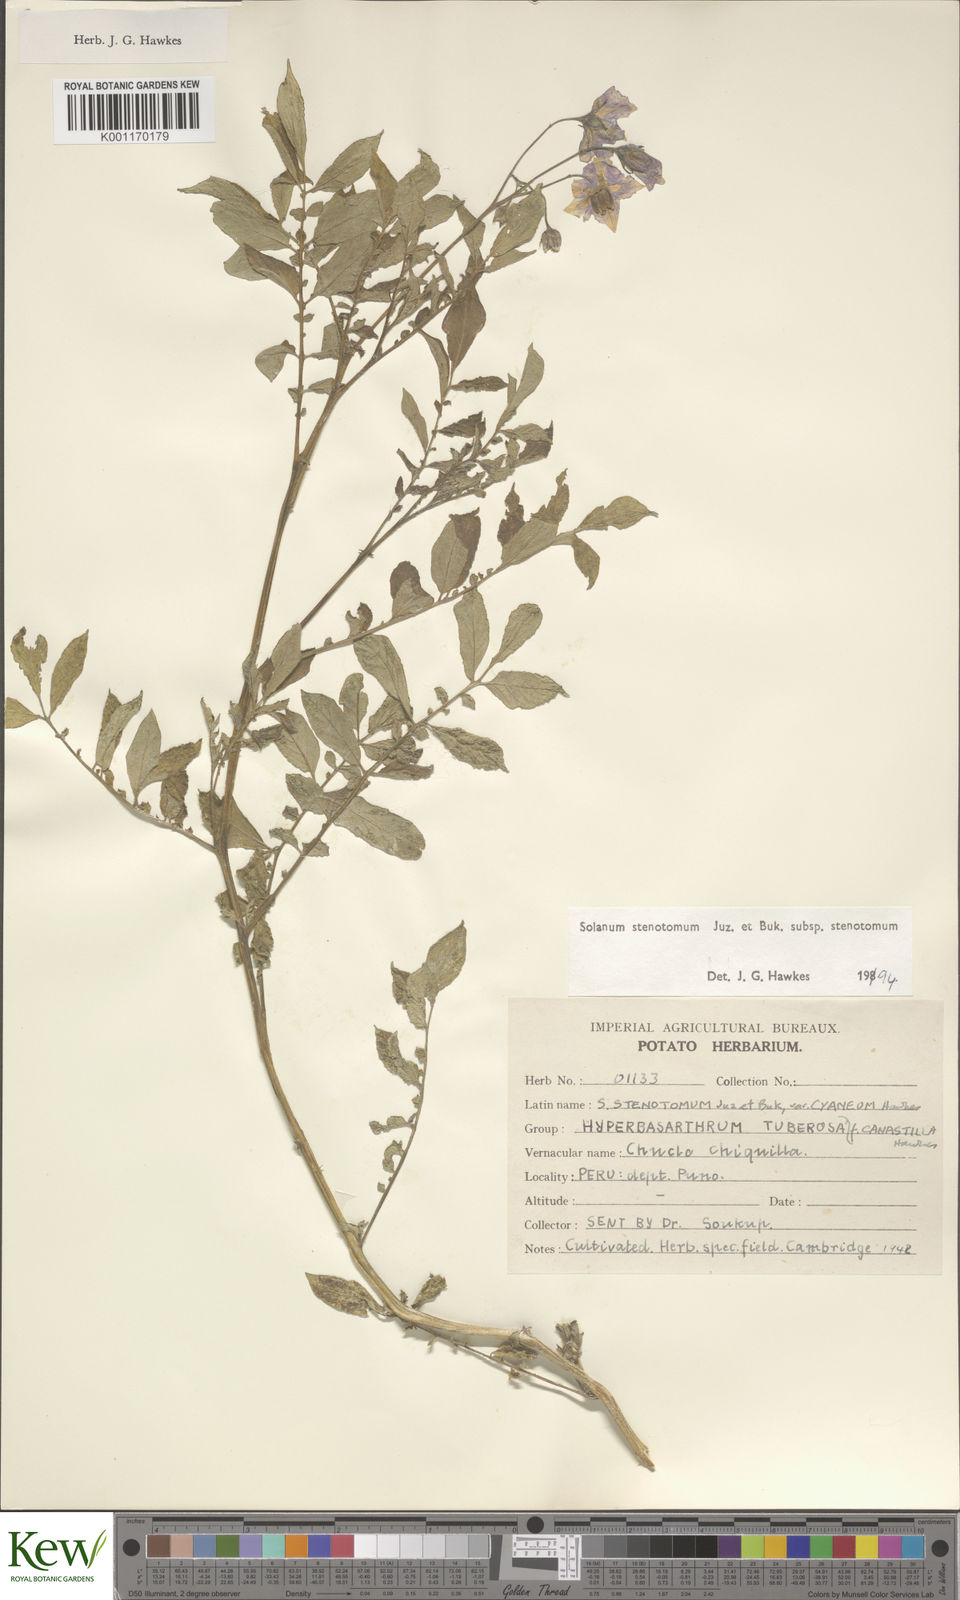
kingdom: Plantae
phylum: Tracheophyta
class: Magnoliopsida
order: Solanales
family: Solanaceae
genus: Solanum
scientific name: Solanum tuberosum
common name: Potato
